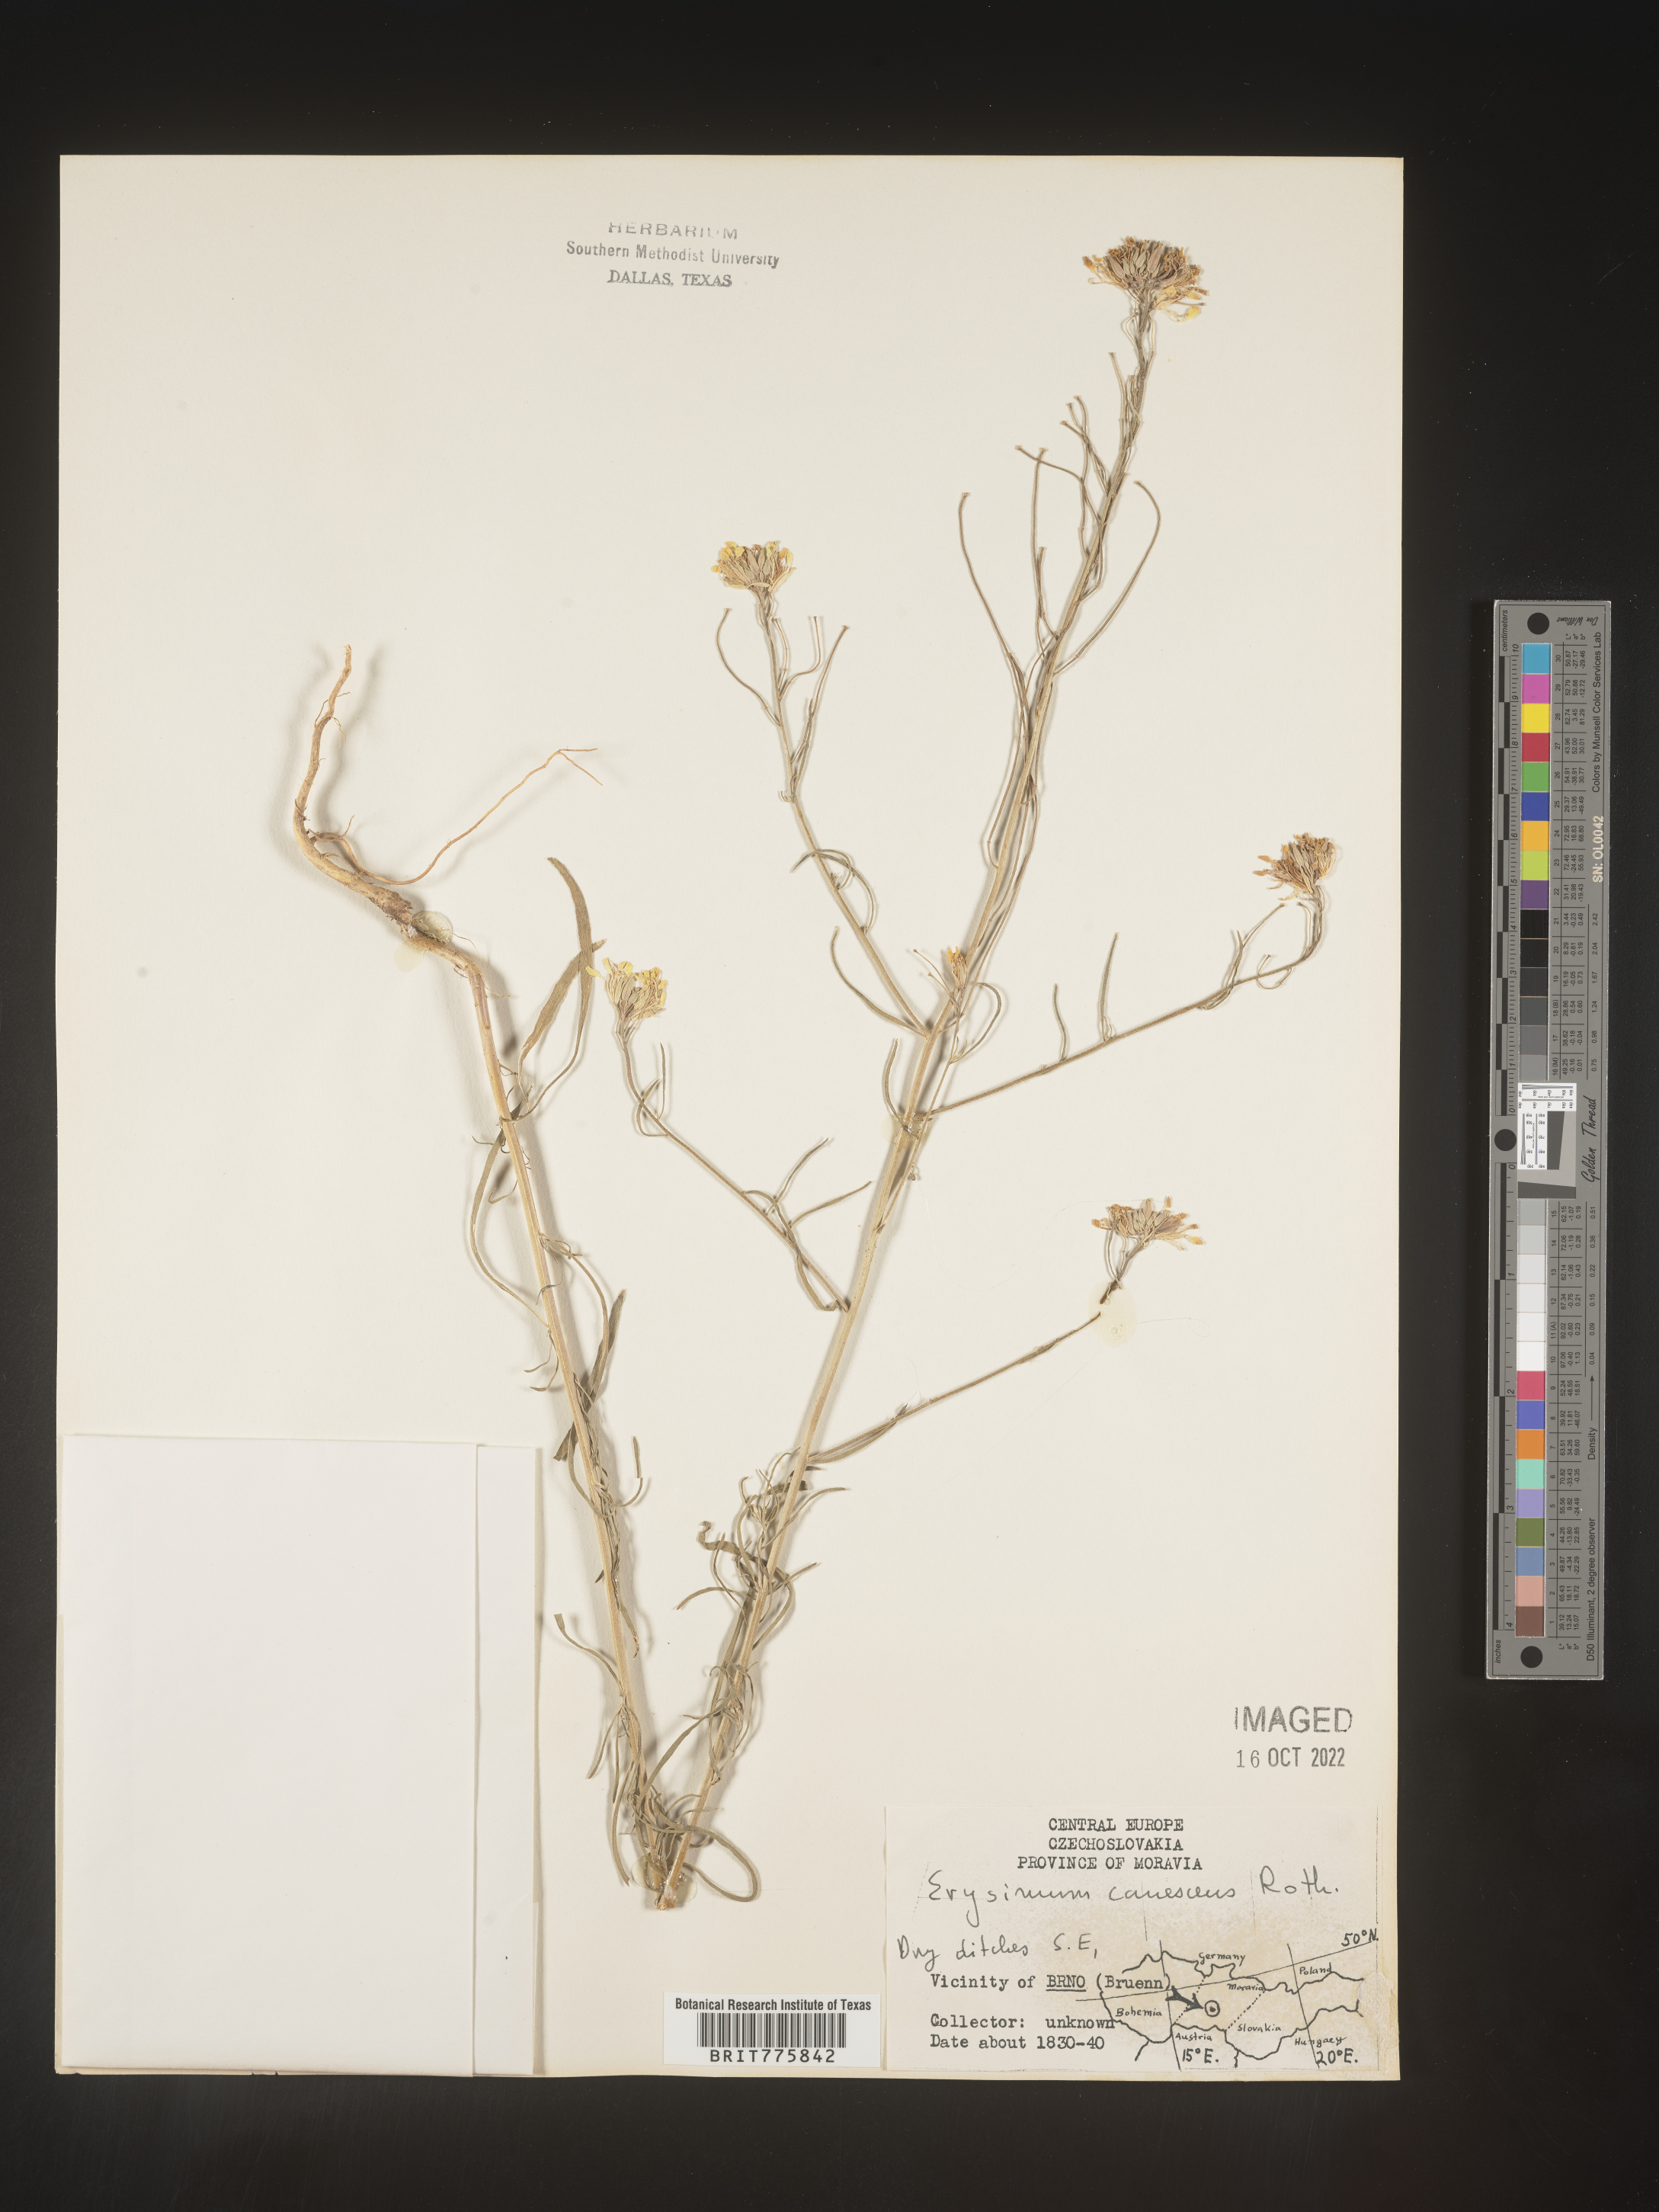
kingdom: Plantae
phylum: Tracheophyta
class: Magnoliopsida
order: Brassicales
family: Brassicaceae
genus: Erysimum
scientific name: Erysimum
